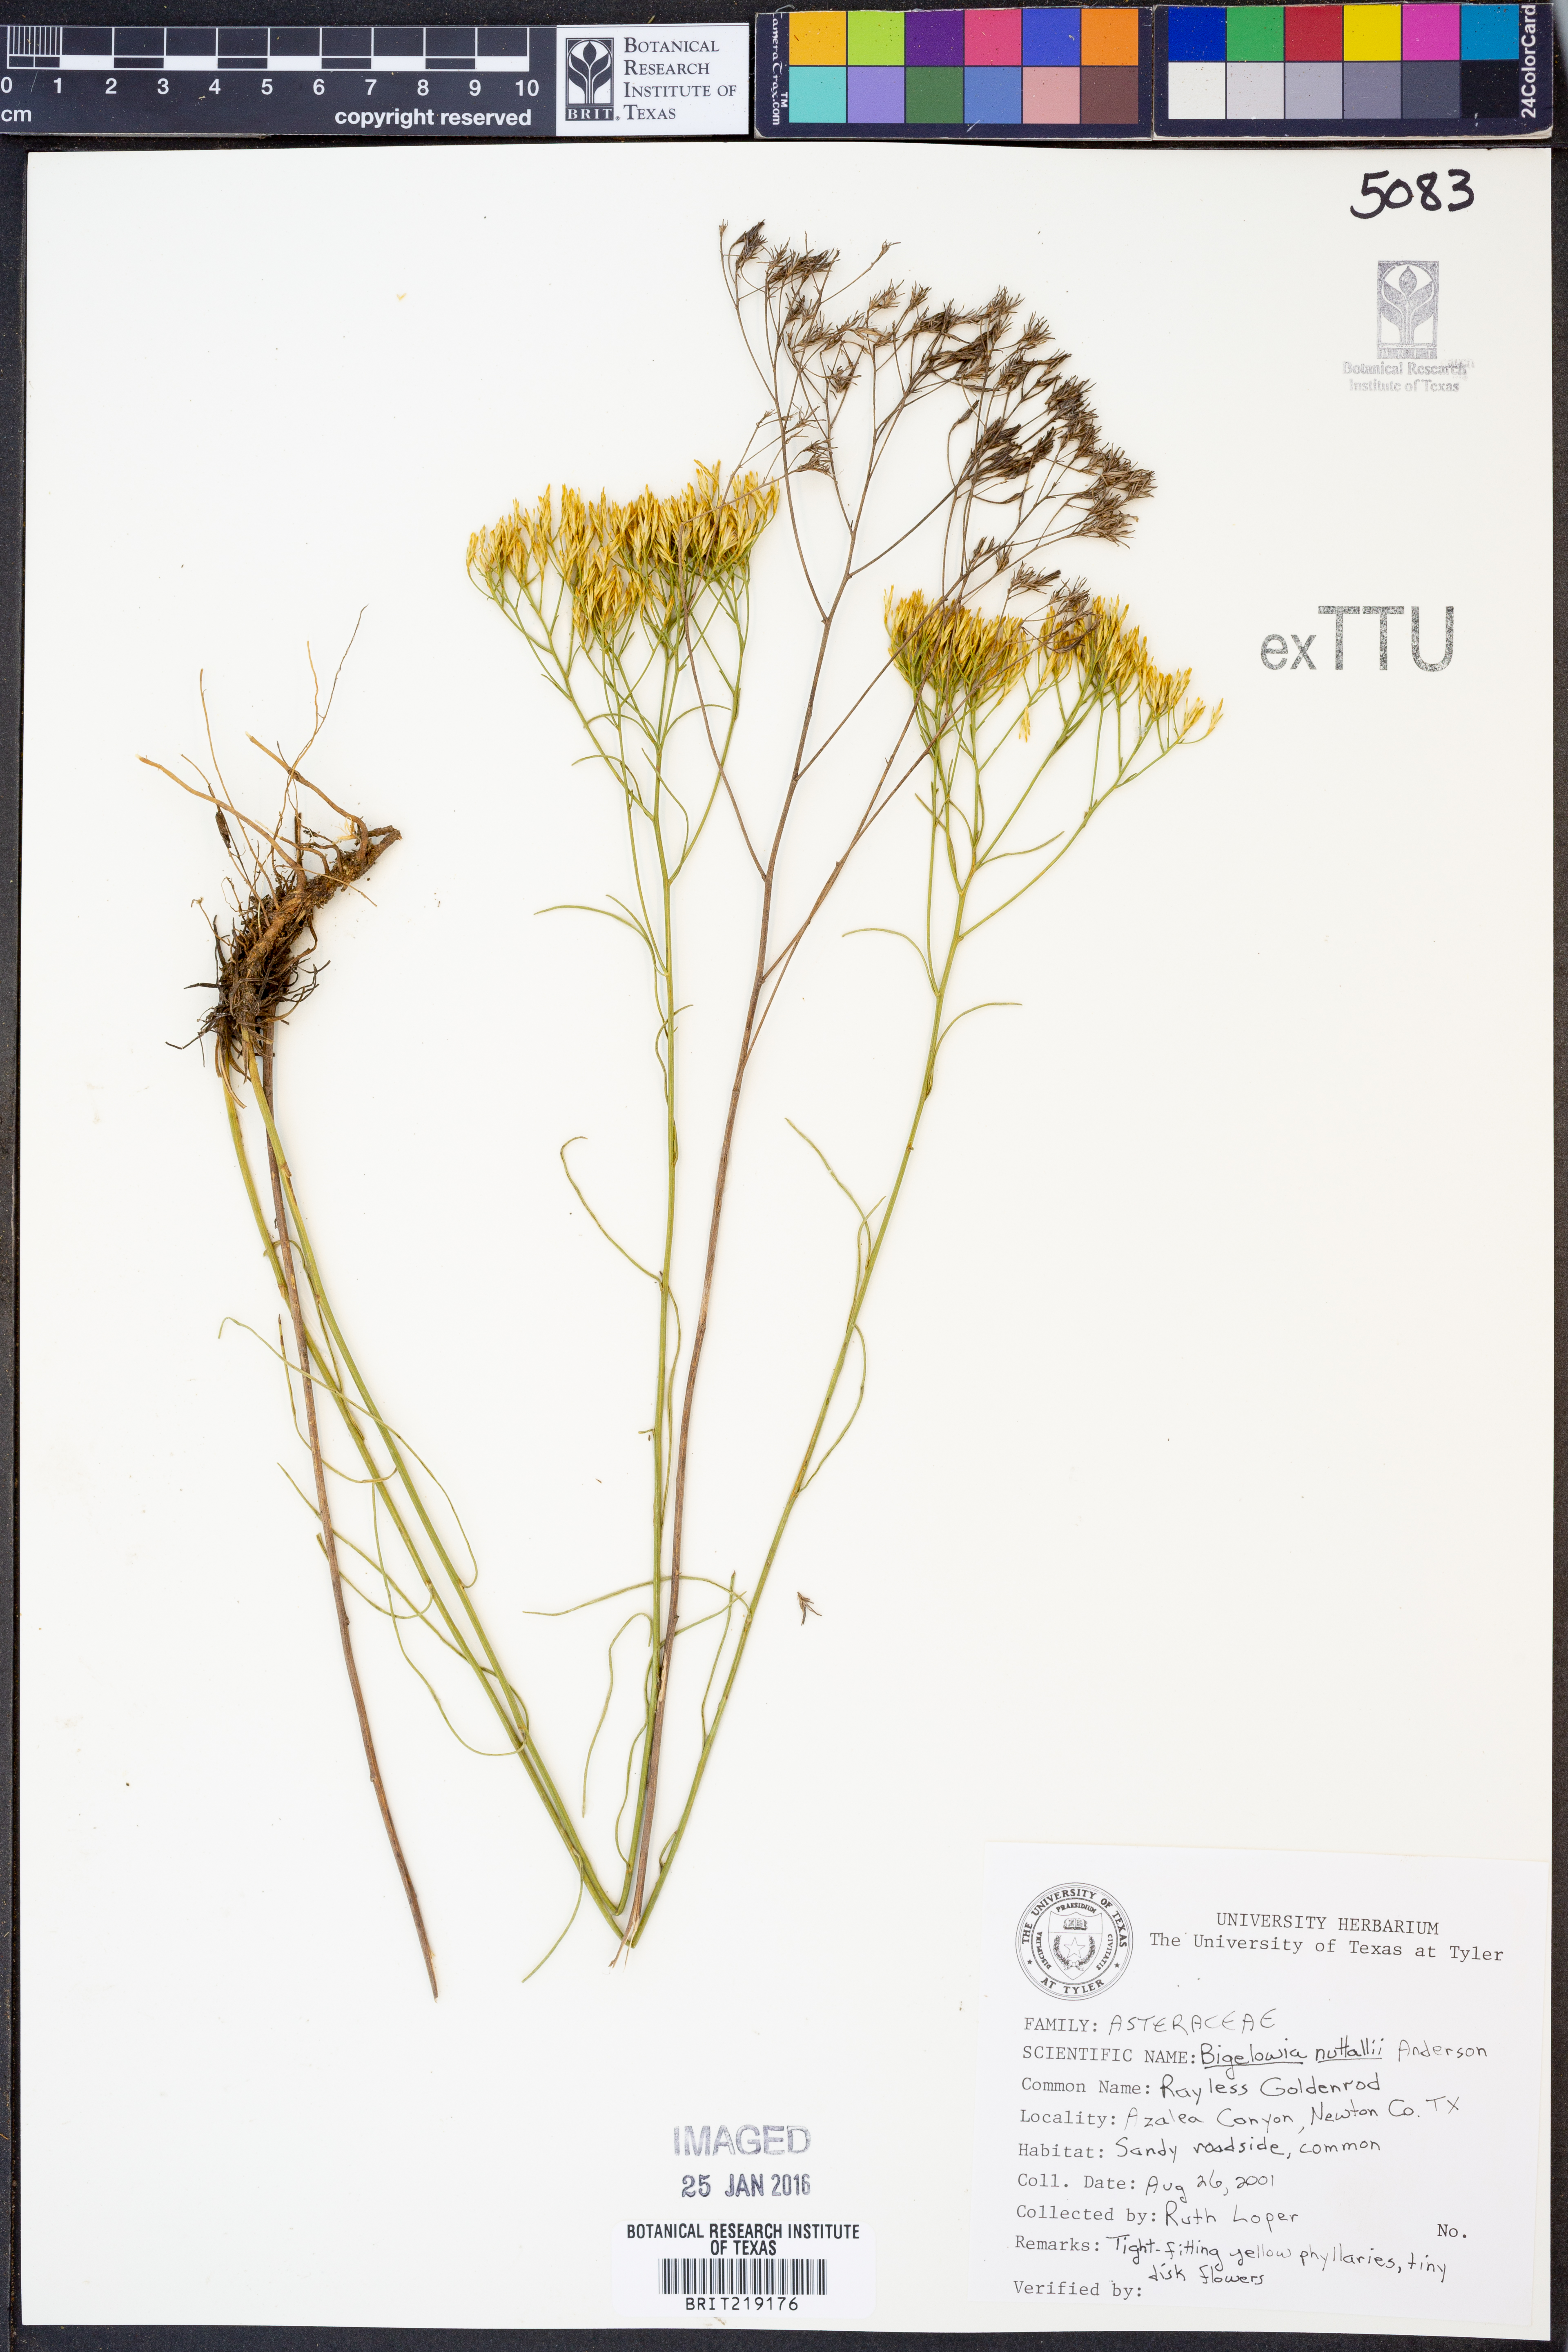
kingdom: Plantae
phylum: Tracheophyta
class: Magnoliopsida
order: Asterales
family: Asteraceae
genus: Bigelowia
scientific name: Bigelowia nuttallii
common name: Nuttall's rayless-goldenrod
